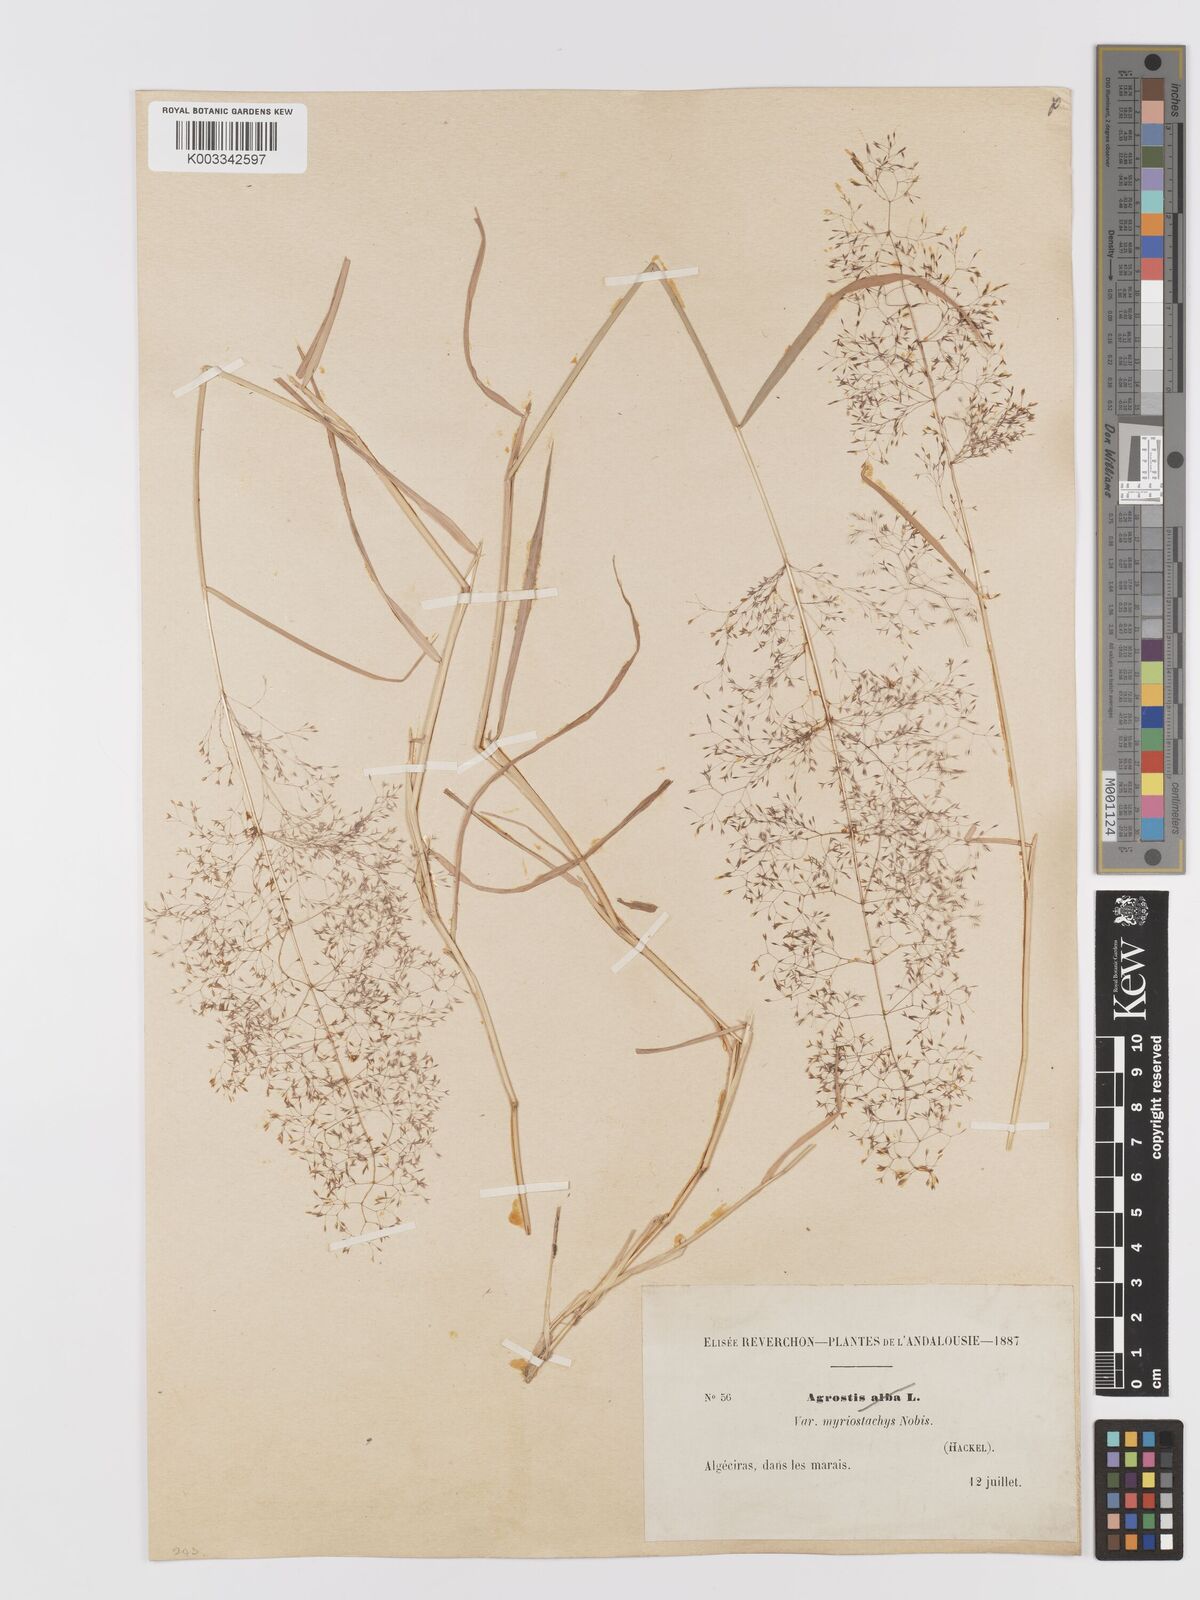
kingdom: Plantae
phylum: Tracheophyta
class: Liliopsida
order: Poales
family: Poaceae
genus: Agrostis
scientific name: Agrostis
